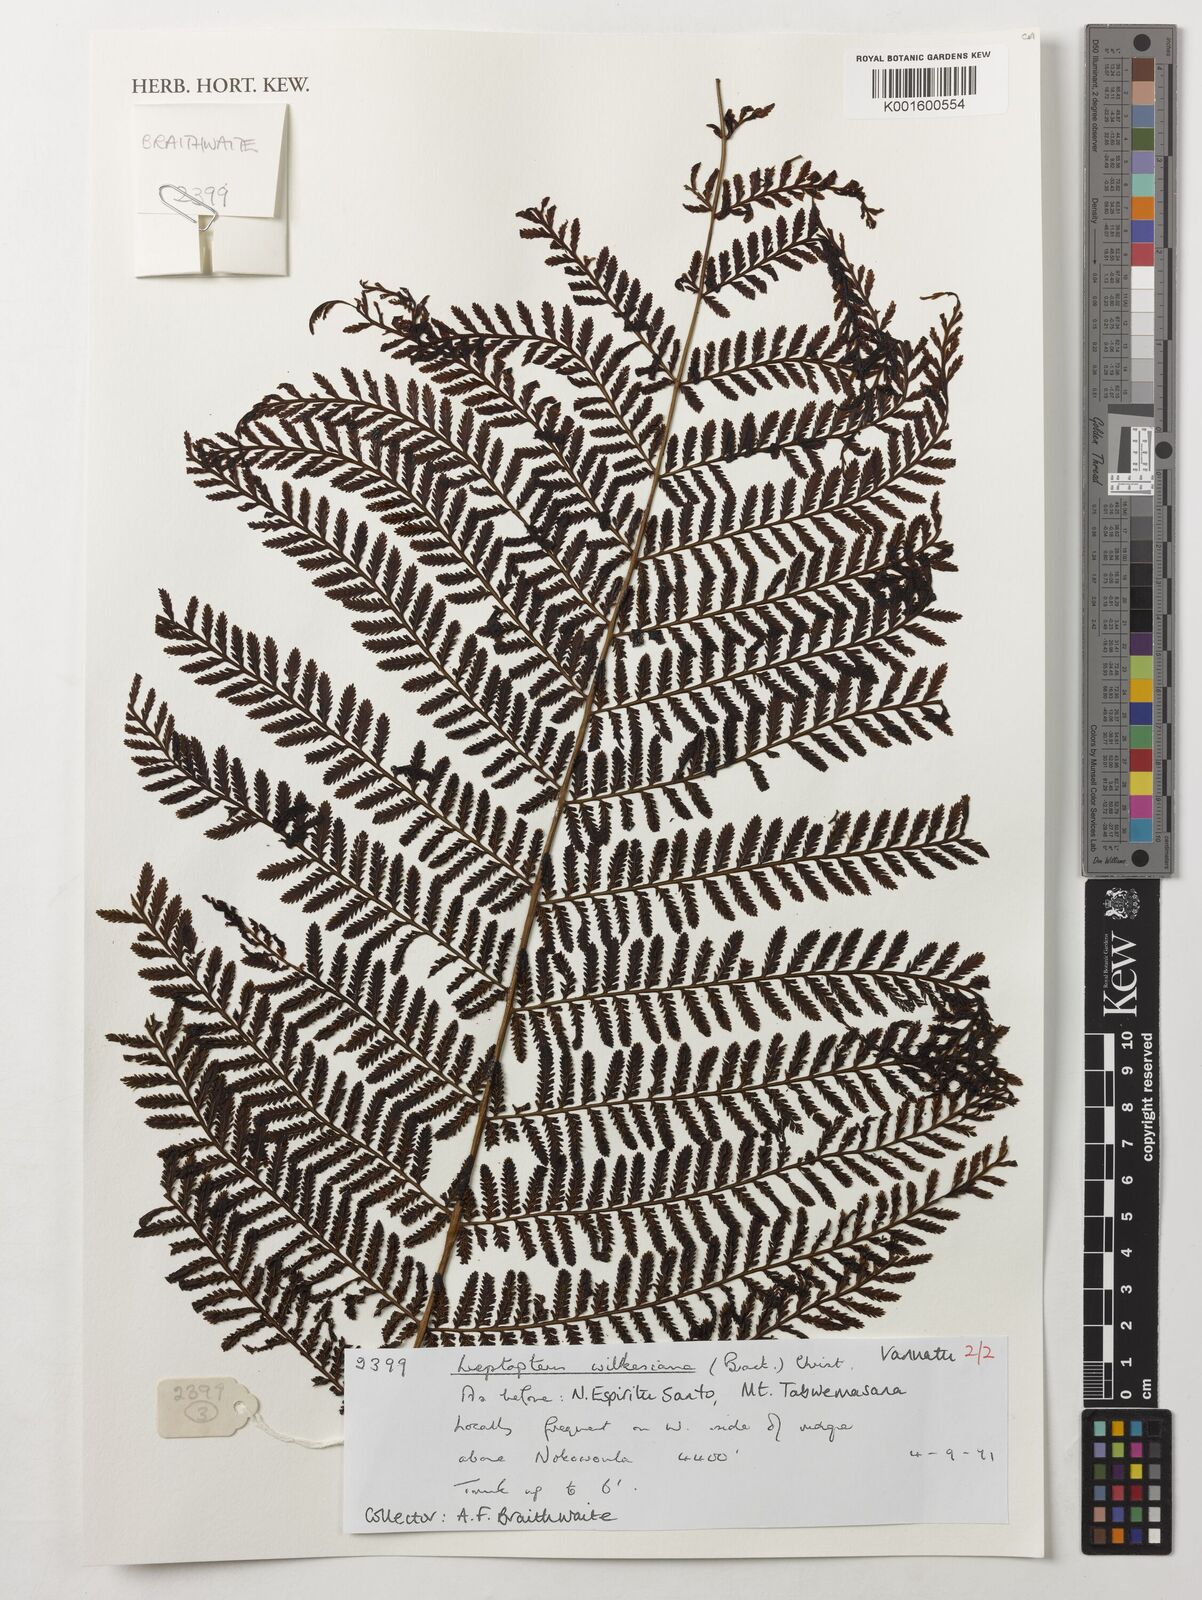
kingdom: Plantae
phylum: Tracheophyta
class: Polypodiopsida
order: Osmundales
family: Osmundaceae
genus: Leptopteris
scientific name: Leptopteris wilkesiana
